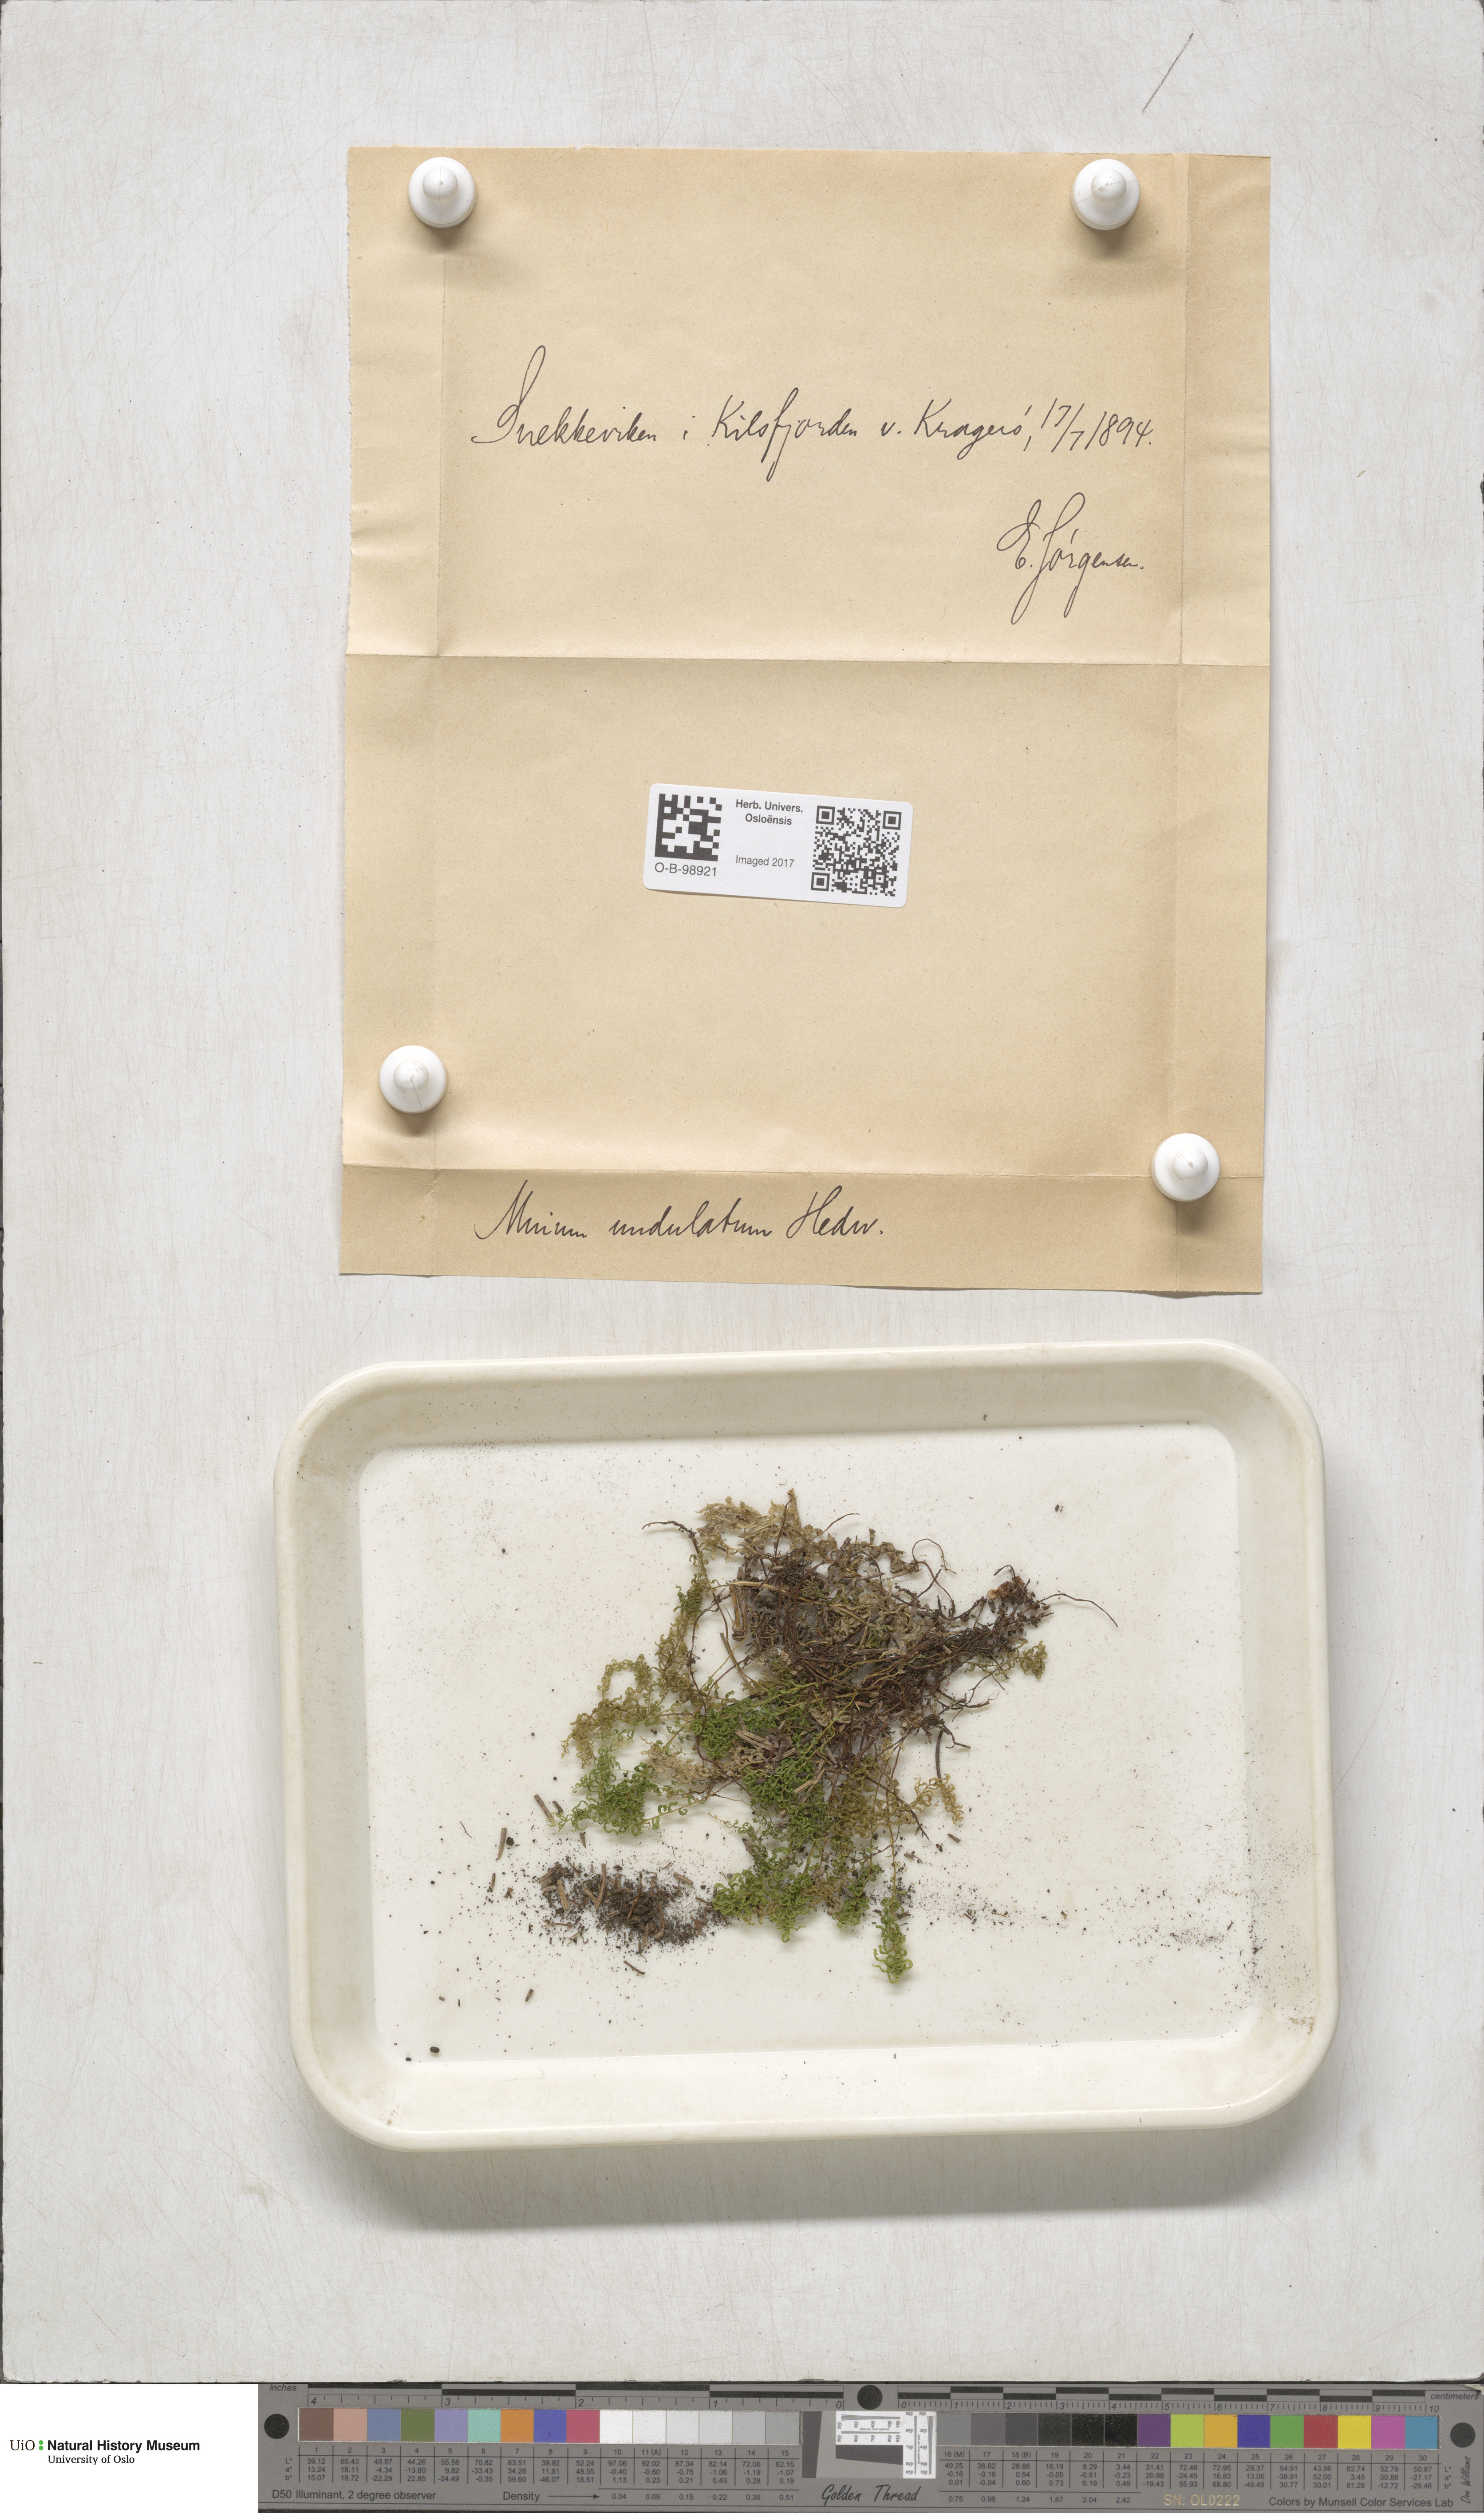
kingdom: Plantae
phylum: Bryophyta
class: Bryopsida
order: Bryales
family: Mniaceae
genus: Plagiomnium
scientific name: Plagiomnium undulatum
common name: Hart's-tongue thyme-moss
